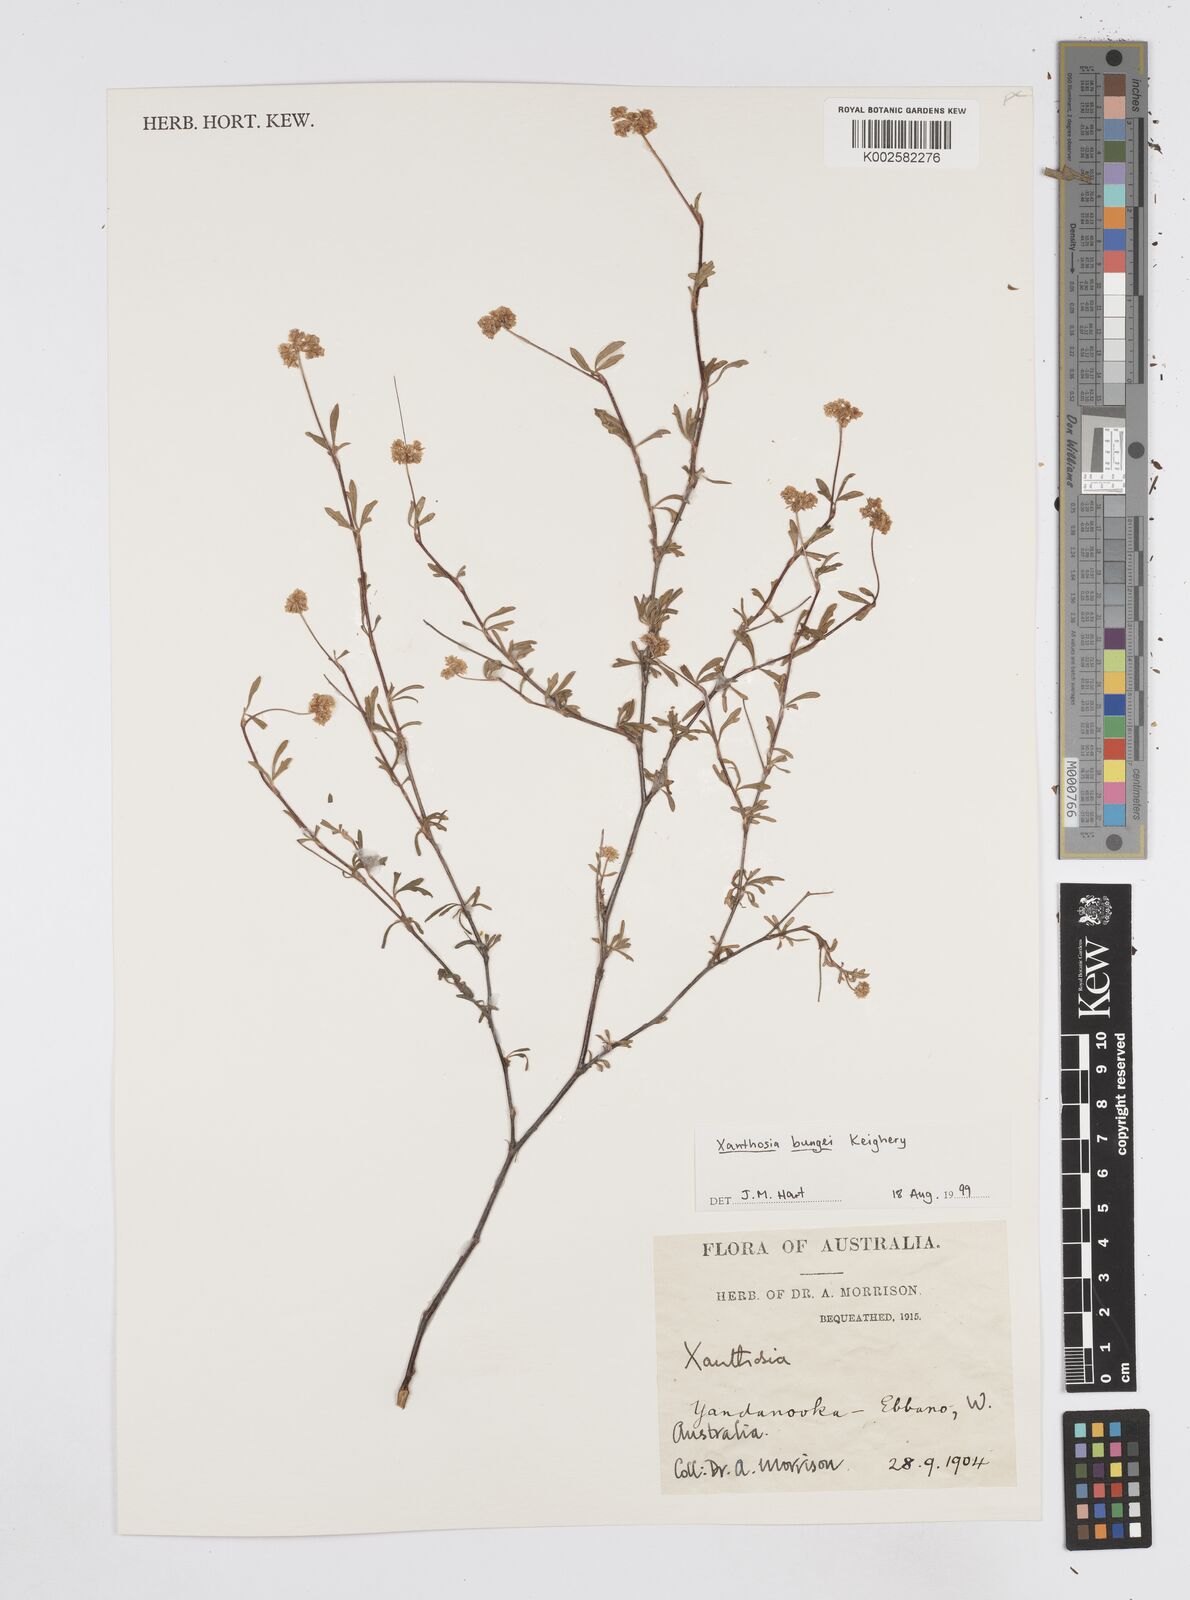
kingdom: Plantae
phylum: Tracheophyta
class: Magnoliopsida
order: Apiales
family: Apiaceae
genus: Xanthosia
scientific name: Xanthosia kochii
